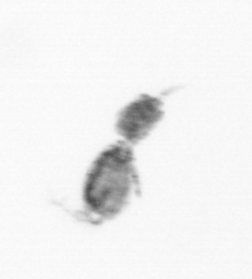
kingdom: Animalia
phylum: Arthropoda
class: Copepoda
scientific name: Copepoda
